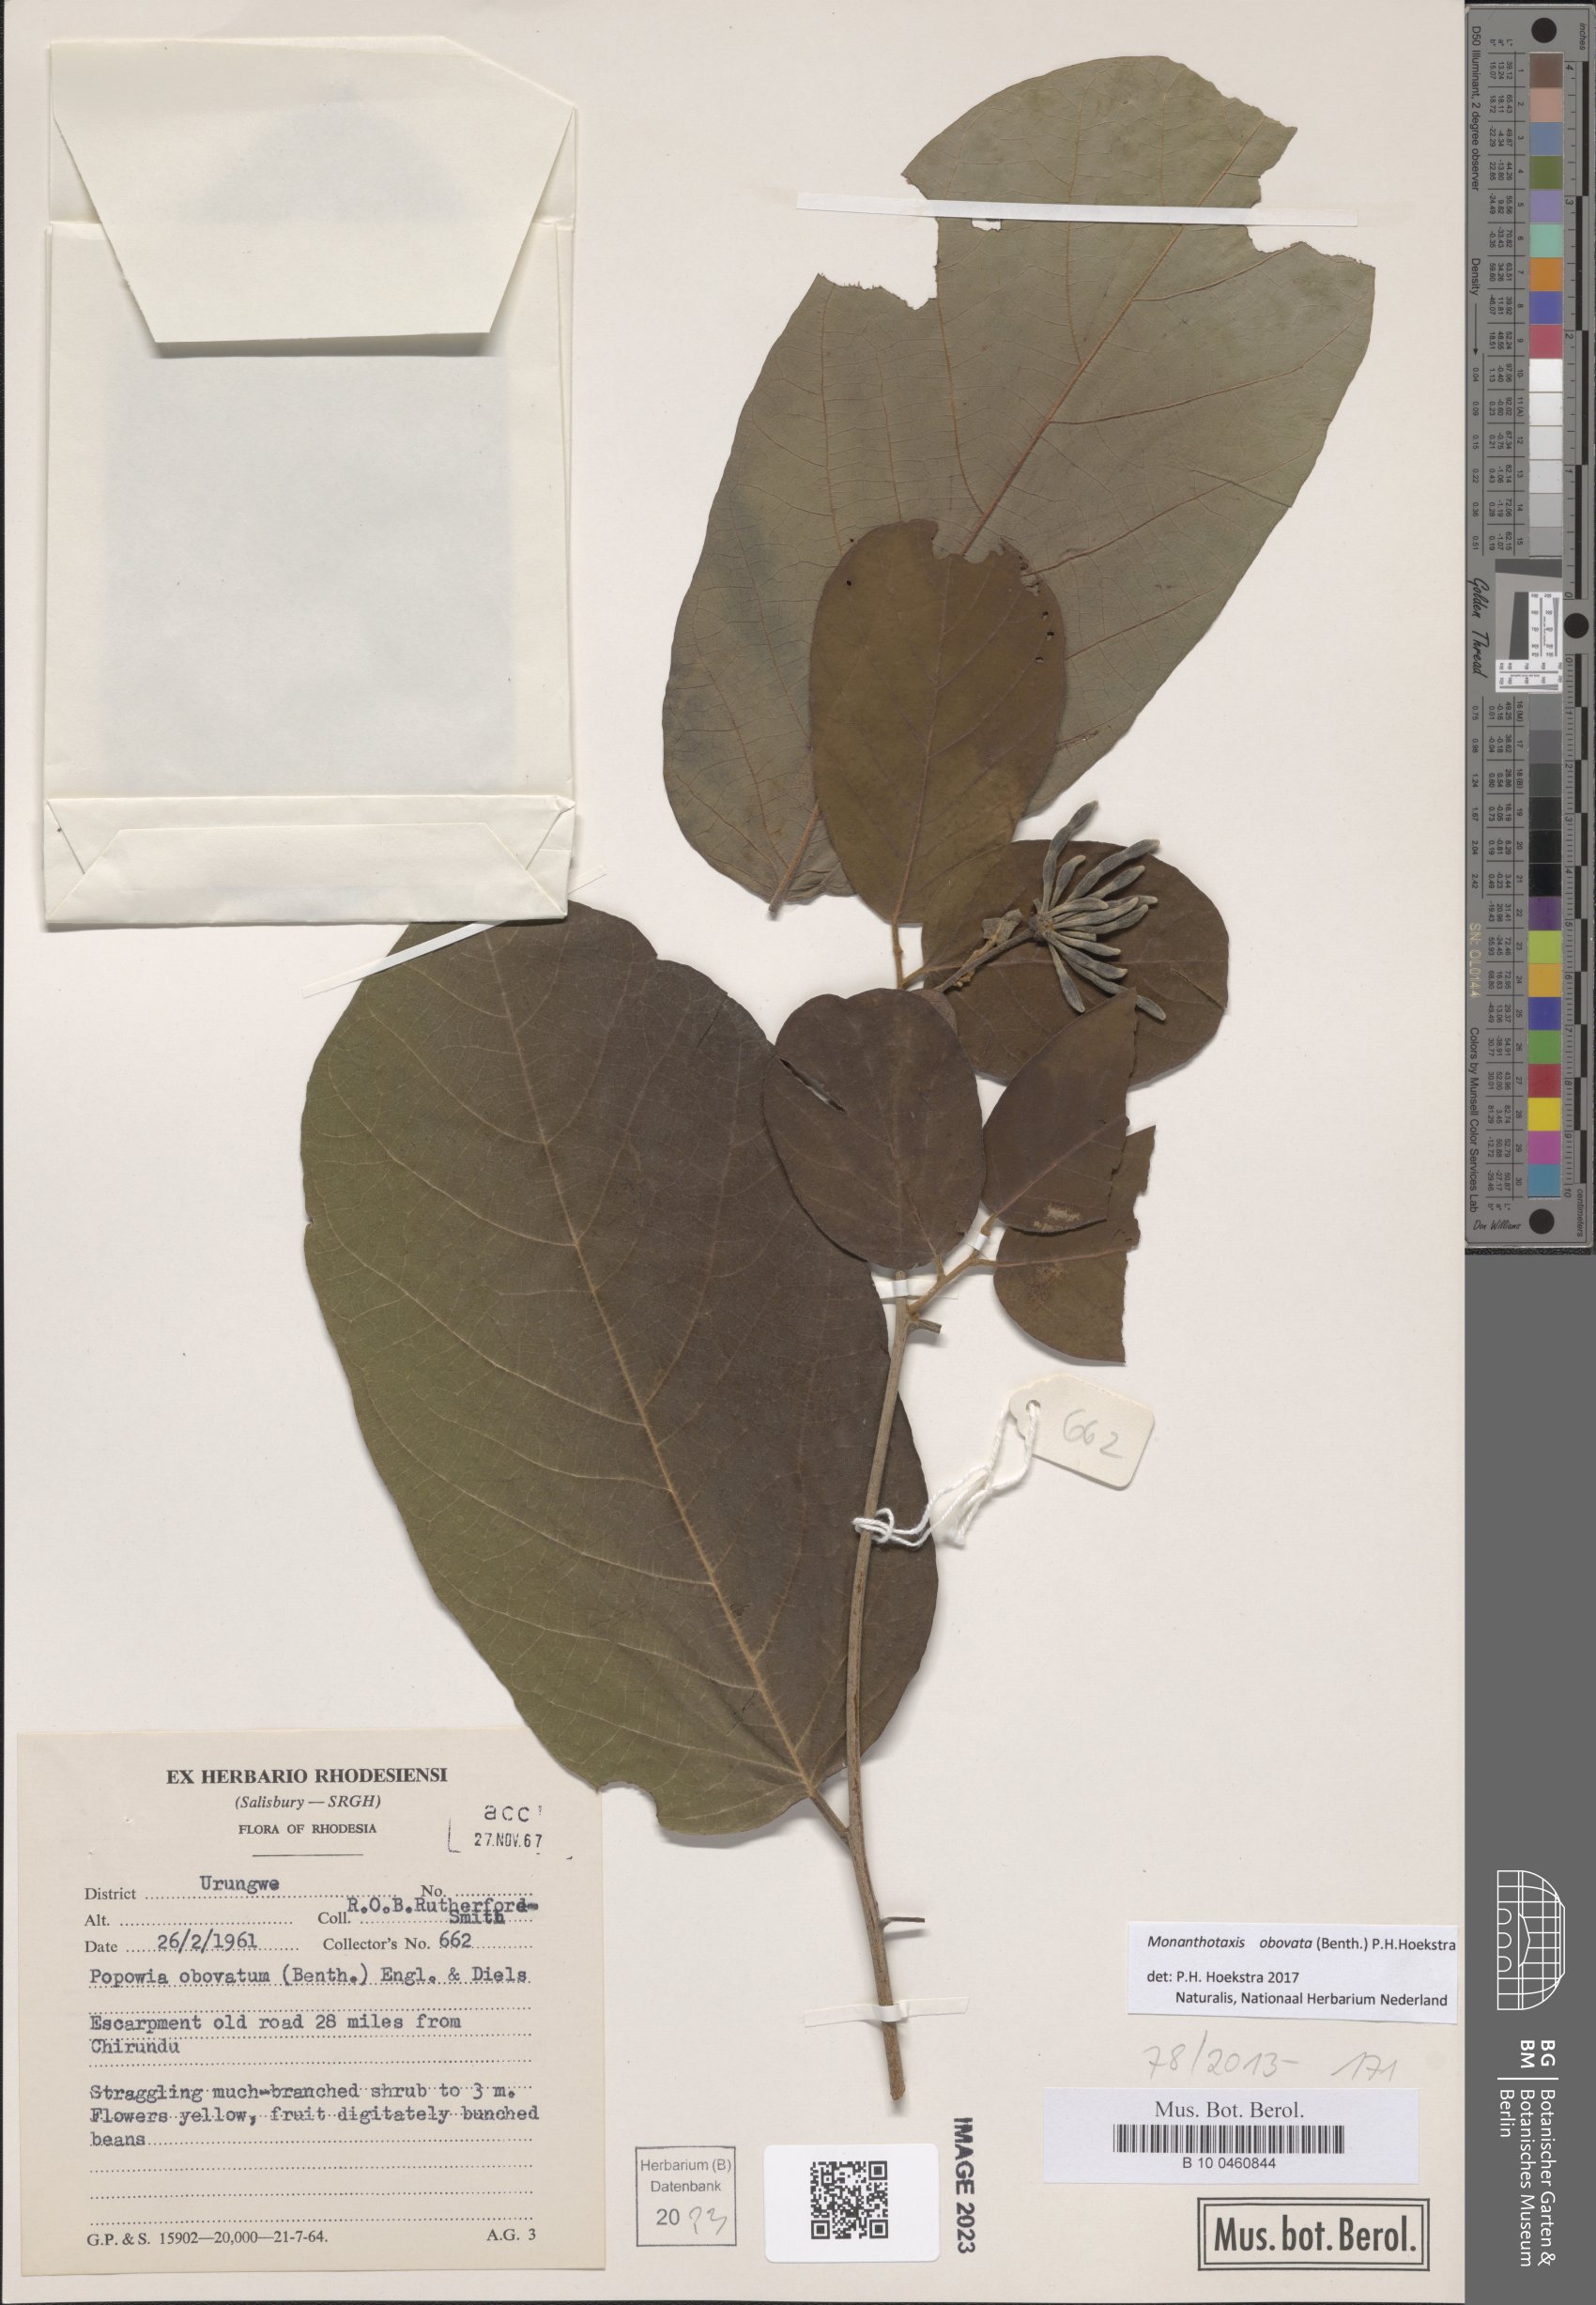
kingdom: Plantae
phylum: Tracheophyta
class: Magnoliopsida
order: Magnoliales
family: Annonaceae
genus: Friesodielsia
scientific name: Friesodielsia obovata
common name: Monkey fingers
